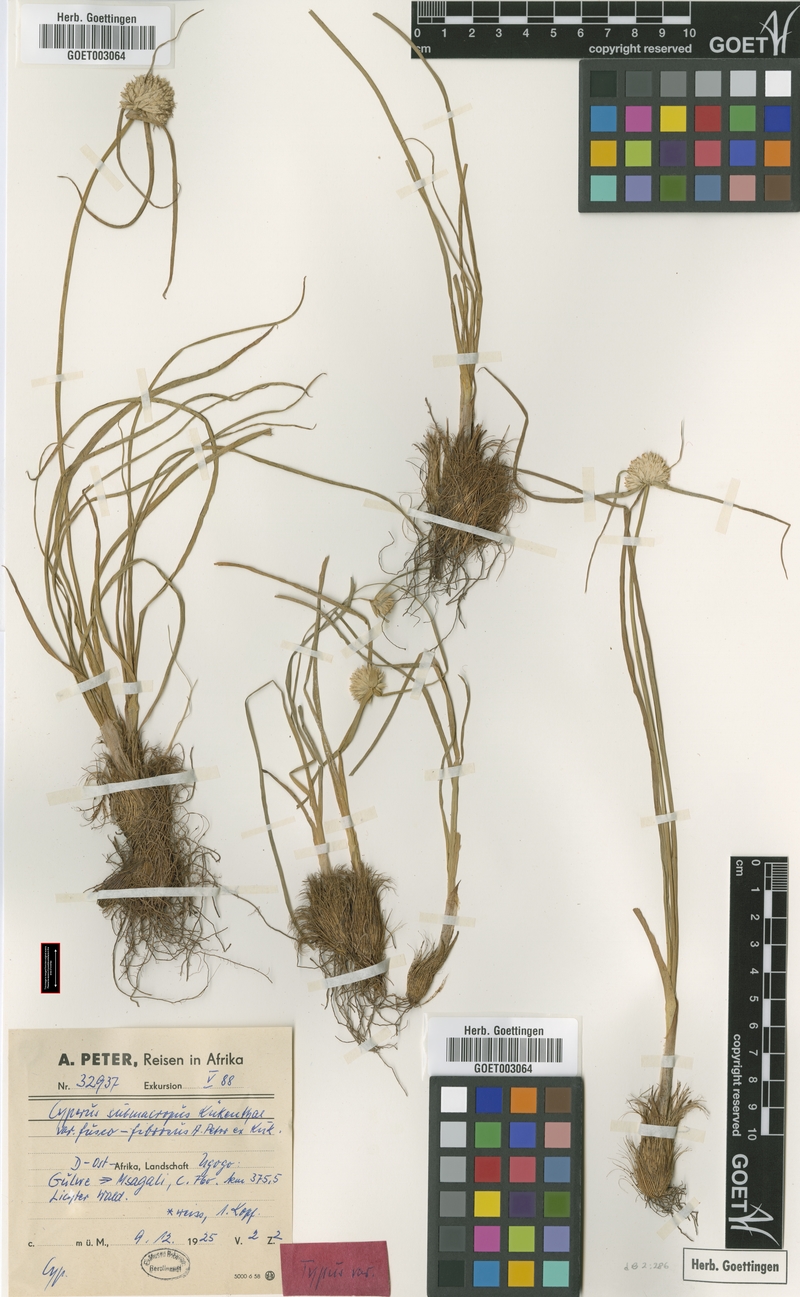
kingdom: Plantae
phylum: Tracheophyta
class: Liliopsida
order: Poales
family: Cyperaceae
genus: Cyperus
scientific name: Cyperus mollipes
